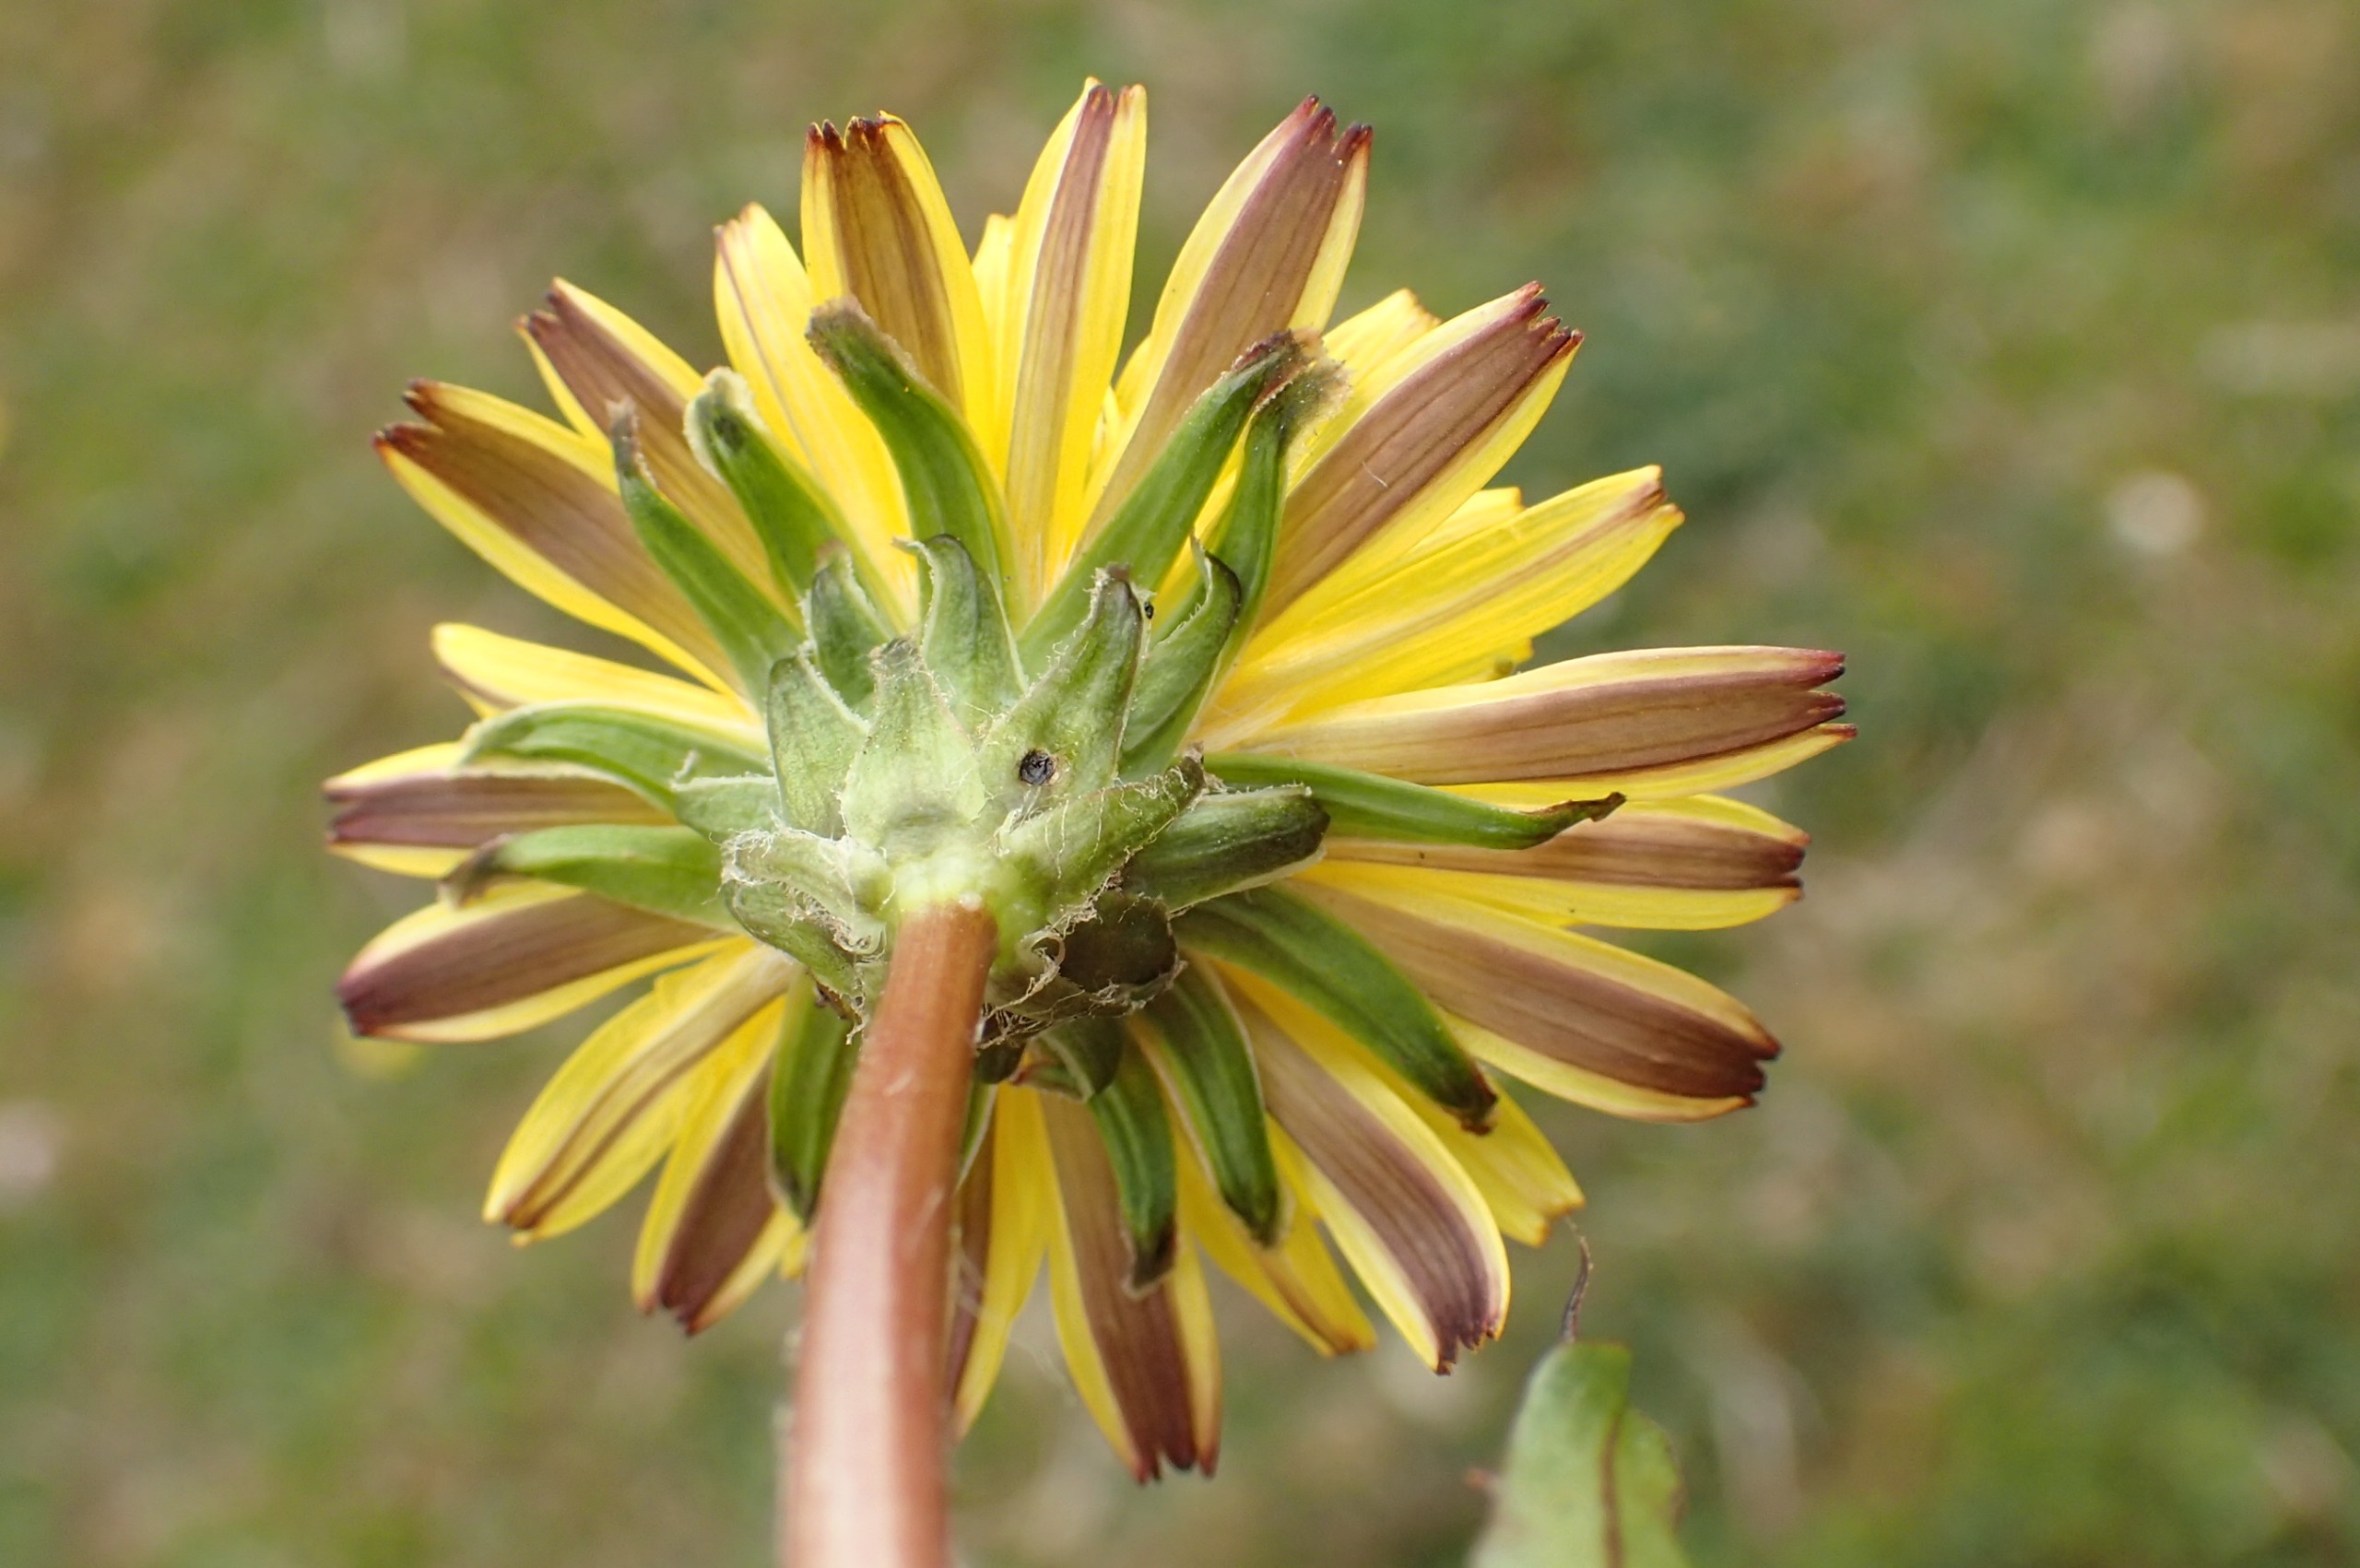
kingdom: Plantae
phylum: Tracheophyta
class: Magnoliopsida
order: Asterales
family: Asteraceae
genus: Taraxacum
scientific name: Taraxacum pietii-oosterveldii
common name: Piets kærmælkebøtte
